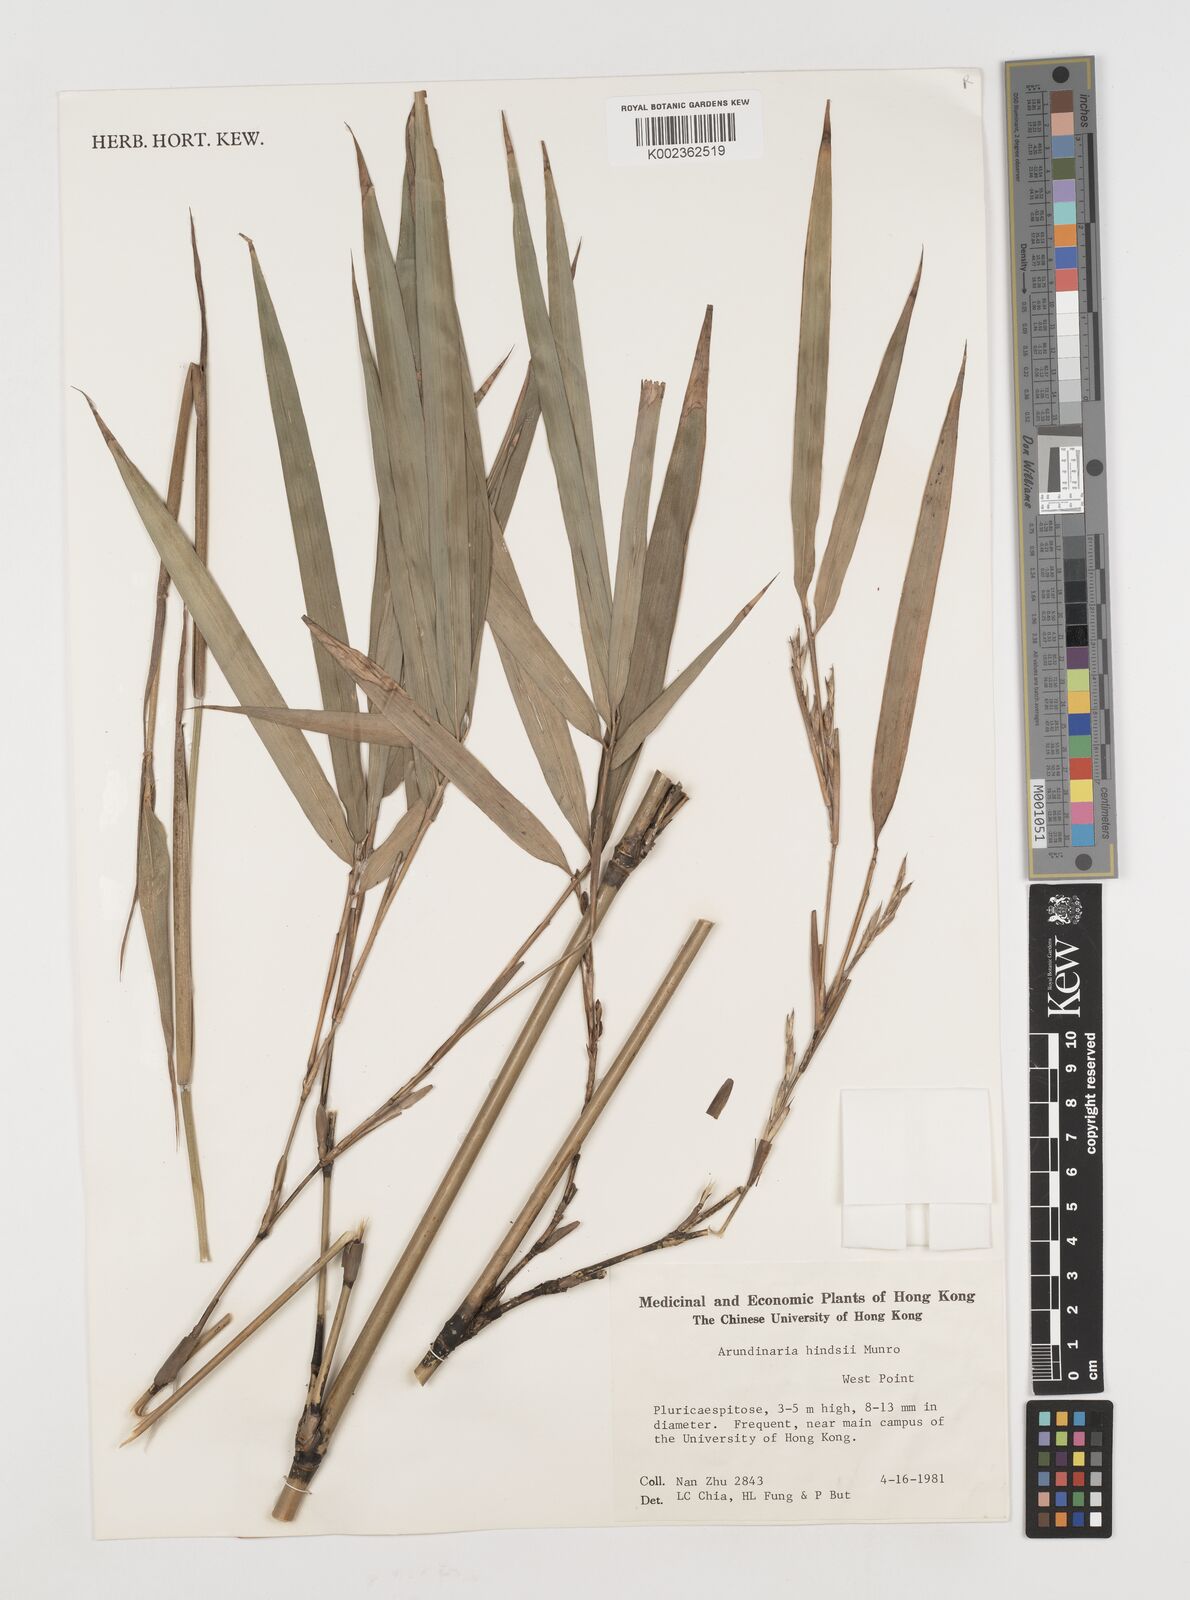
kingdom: Plantae
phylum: Tracheophyta
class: Liliopsida
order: Poales
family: Poaceae
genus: Pseudosasa
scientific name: Pseudosasa hindsii
